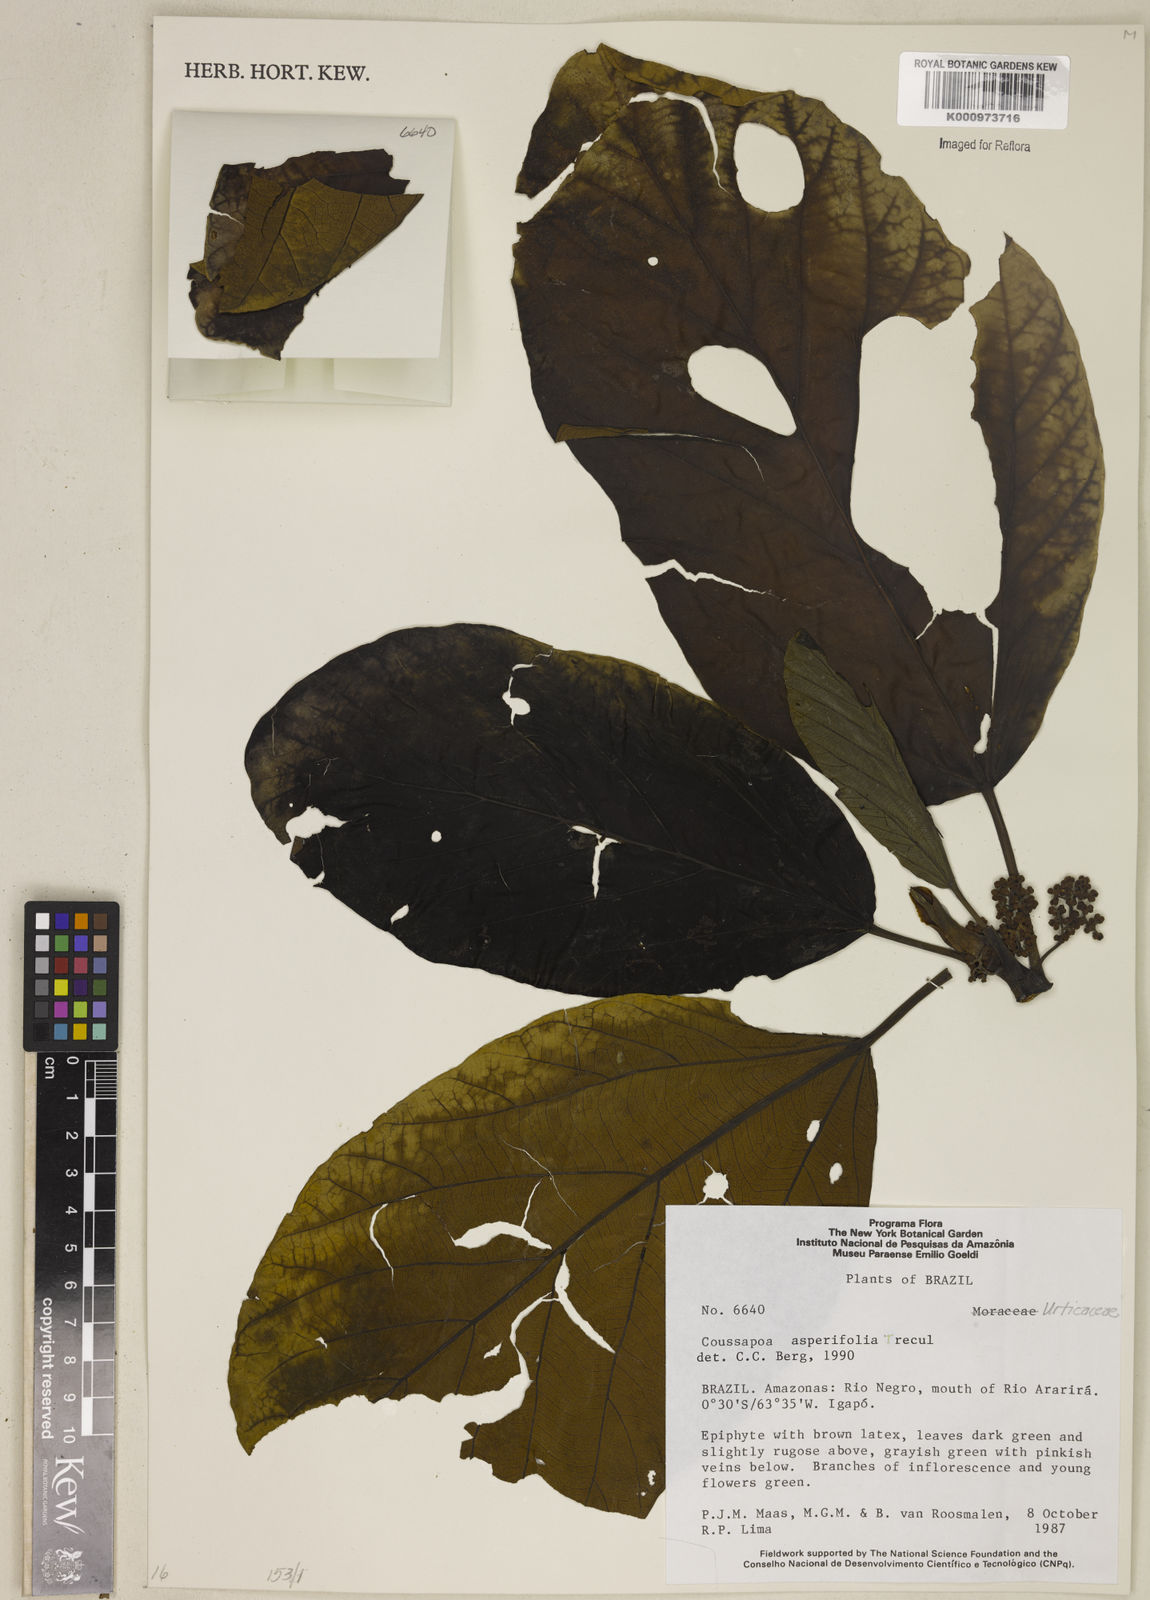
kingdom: Plantae
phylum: Tracheophyta
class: Magnoliopsida
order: Rosales
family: Urticaceae
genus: Coussapoa
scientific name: Coussapoa
